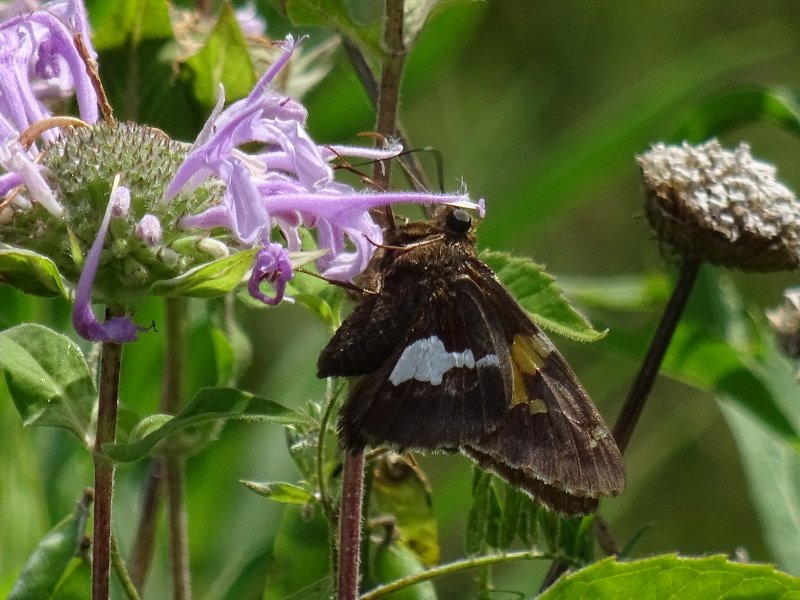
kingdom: Animalia
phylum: Arthropoda
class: Insecta
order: Lepidoptera
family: Hesperiidae
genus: Epargyreus
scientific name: Epargyreus clarus
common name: Silver-spotted Skipper
